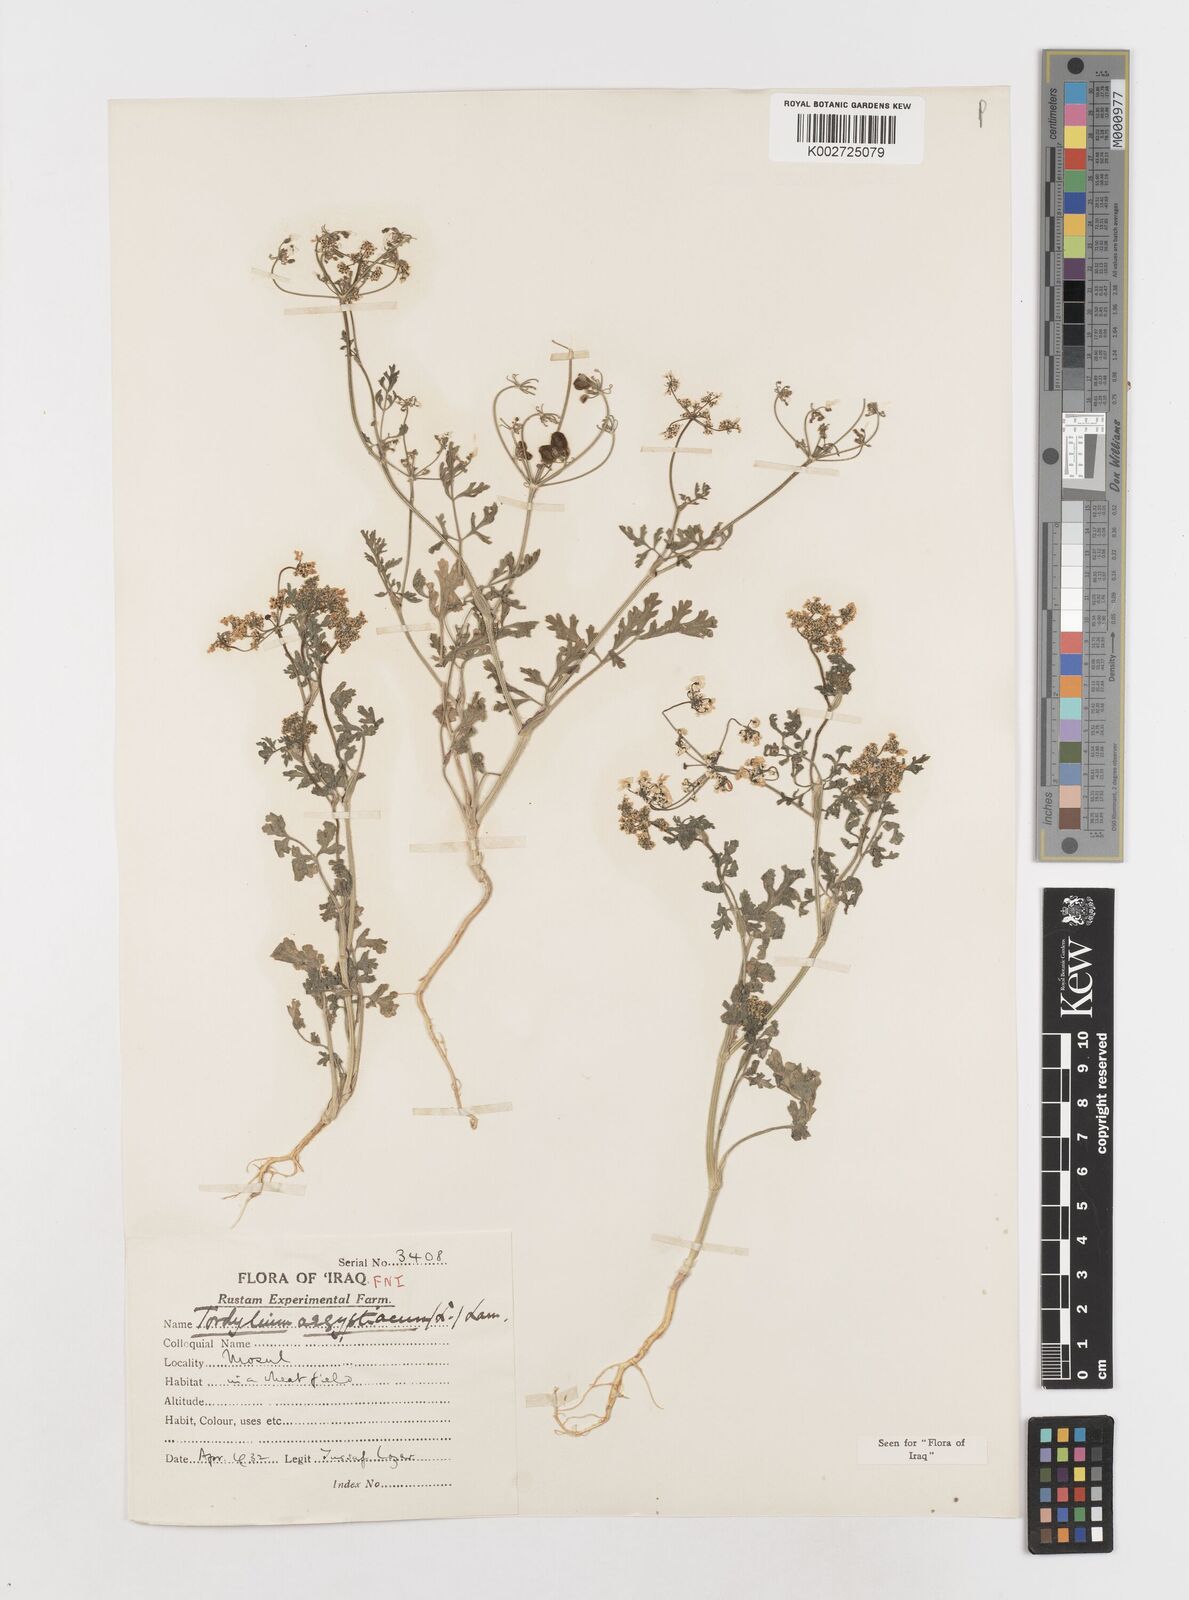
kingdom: Plantae
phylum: Tracheophyta
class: Magnoliopsida
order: Apiales
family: Apiaceae
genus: Tordylium
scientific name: Tordylium aegyptiacum
